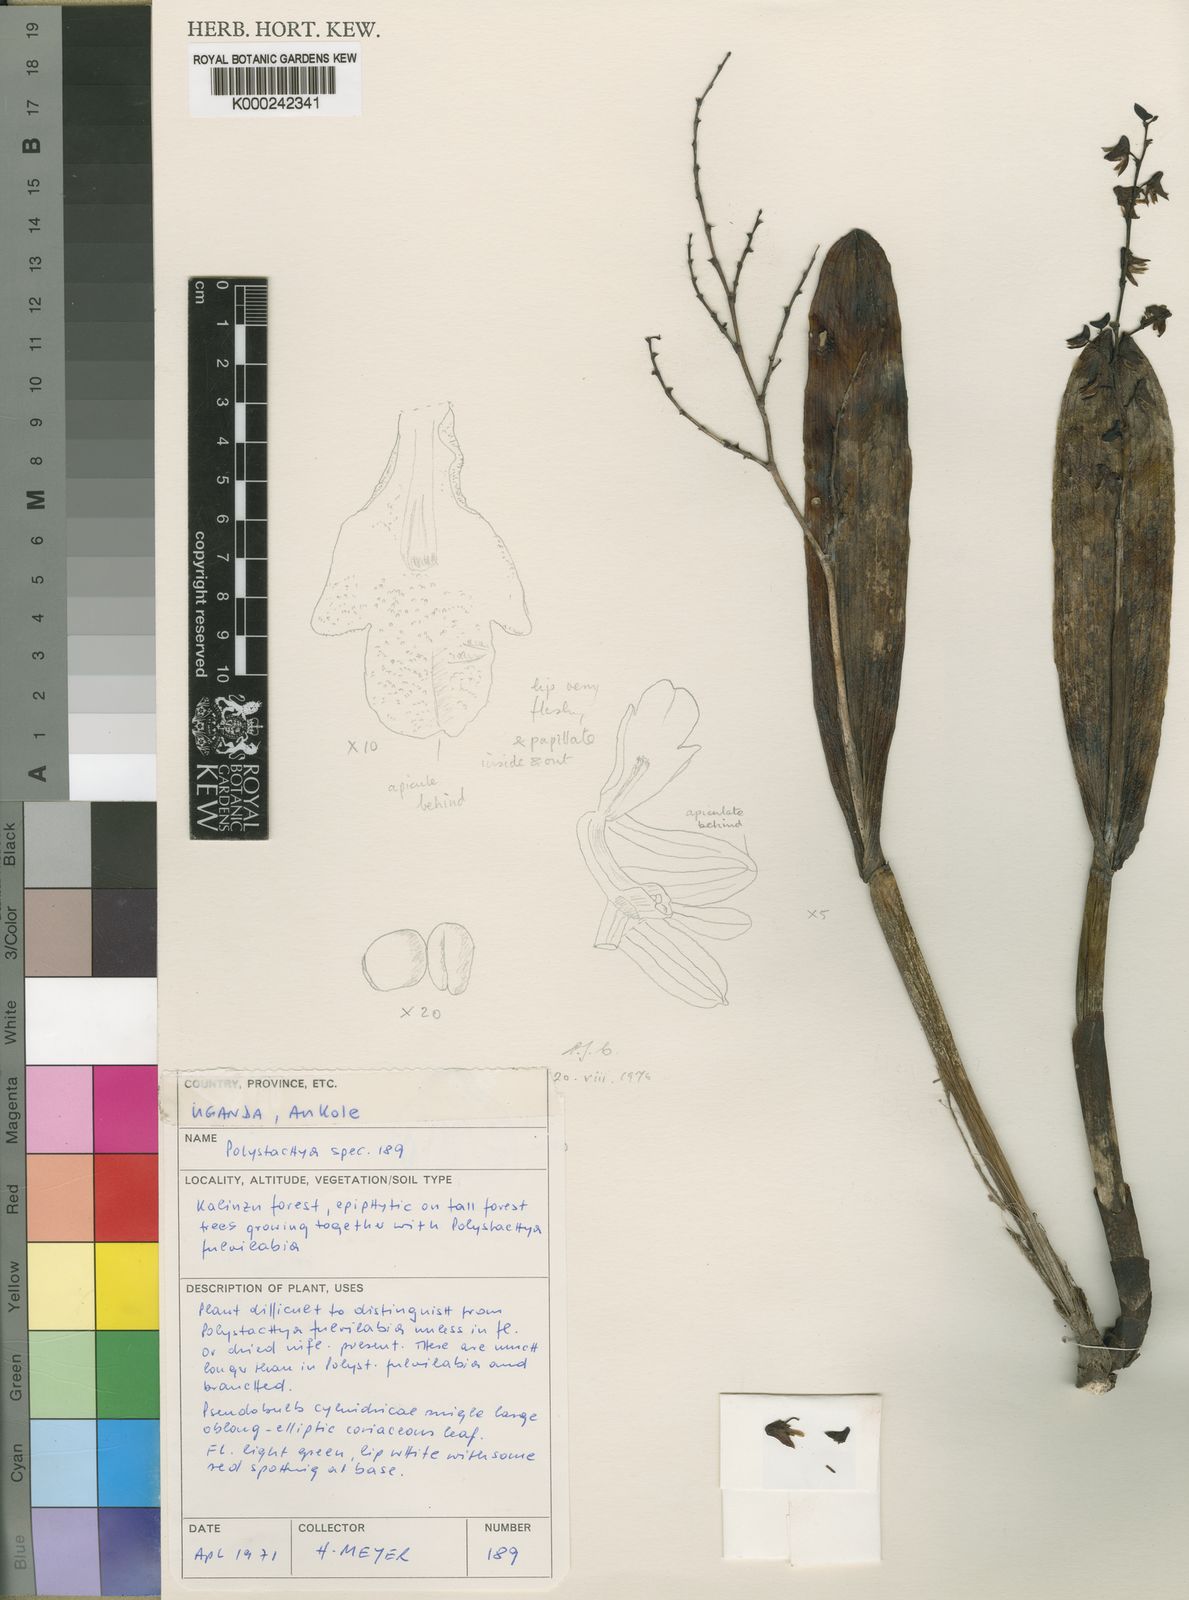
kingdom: Plantae
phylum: Tracheophyta
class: Liliopsida
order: Asparagales
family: Orchidaceae
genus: Polystachya
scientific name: Polystachya meyeri
